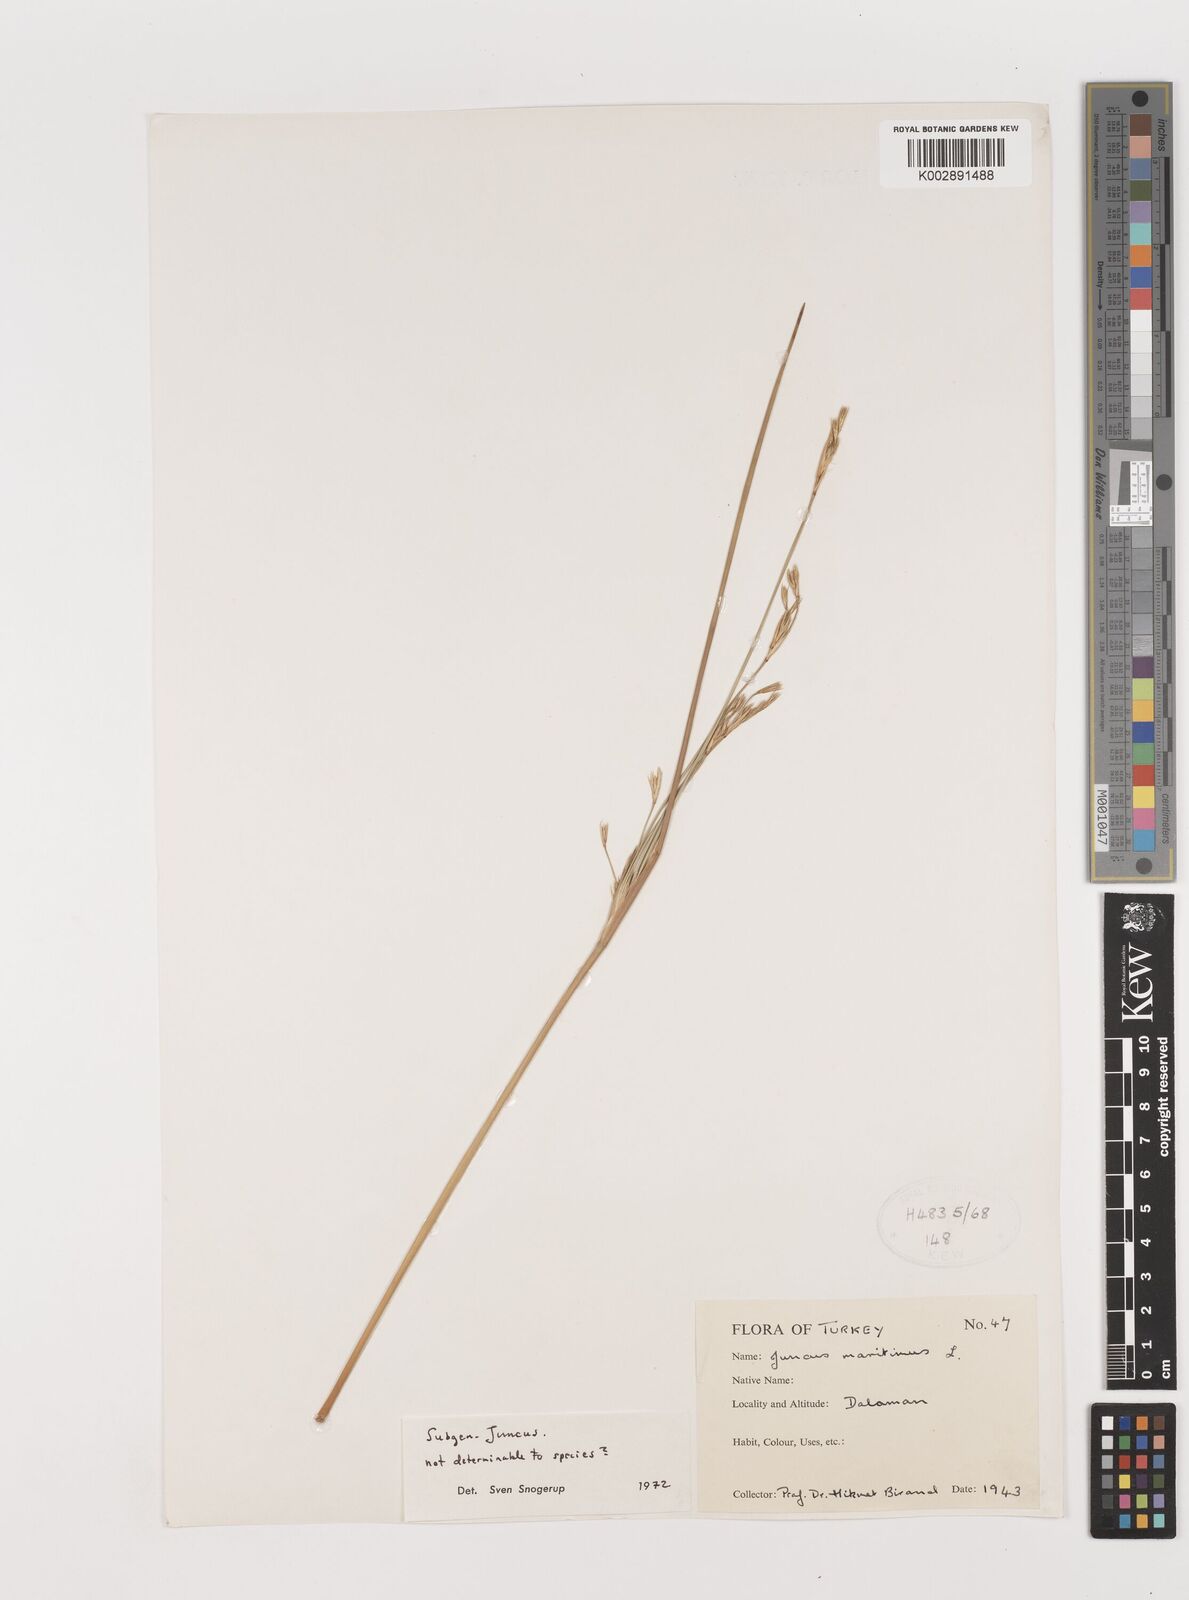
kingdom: Plantae
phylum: Tracheophyta
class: Liliopsida
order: Poales
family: Juncaceae
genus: Juncus
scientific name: Juncus maritimus
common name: Sea rush
